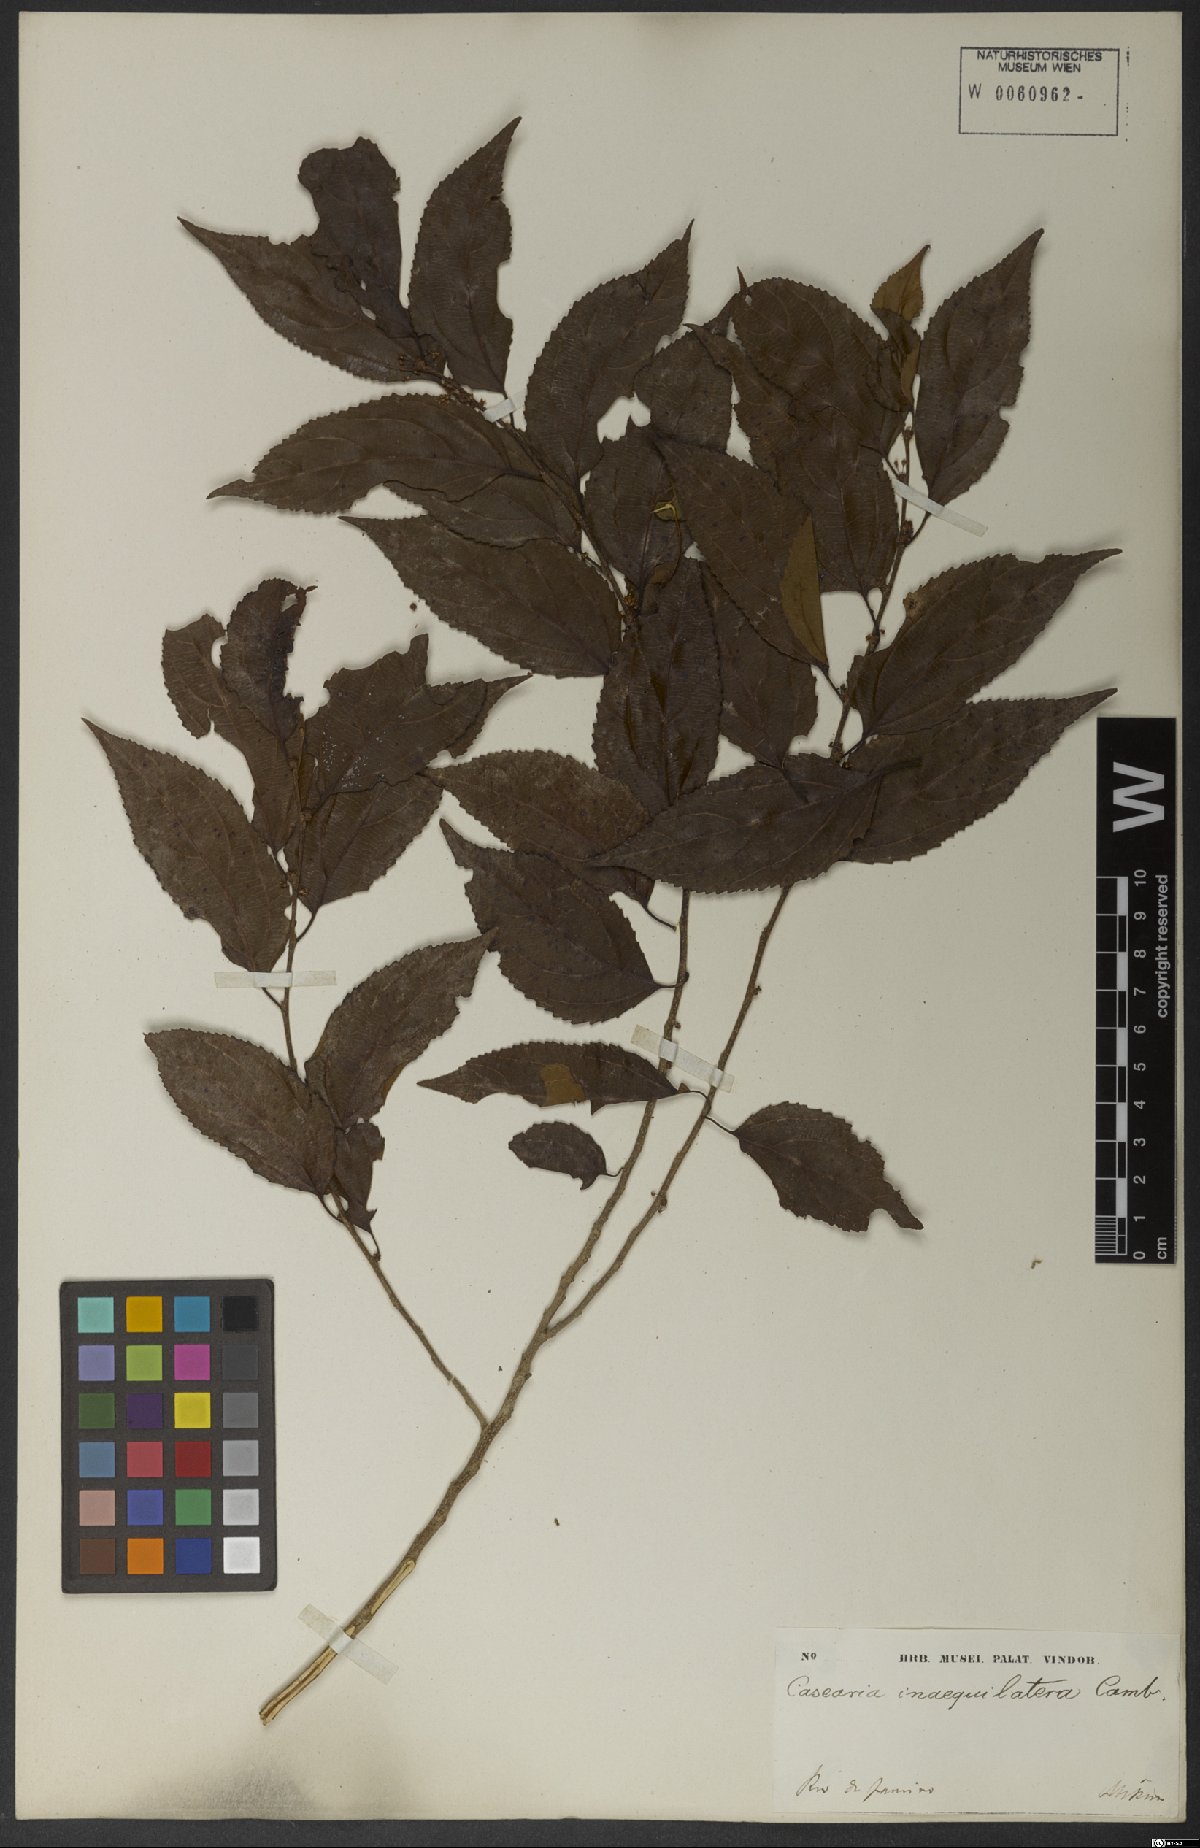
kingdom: Plantae
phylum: Tracheophyta
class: Magnoliopsida
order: Malpighiales
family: Salicaceae
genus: Casearia
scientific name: Casearia obliqua
